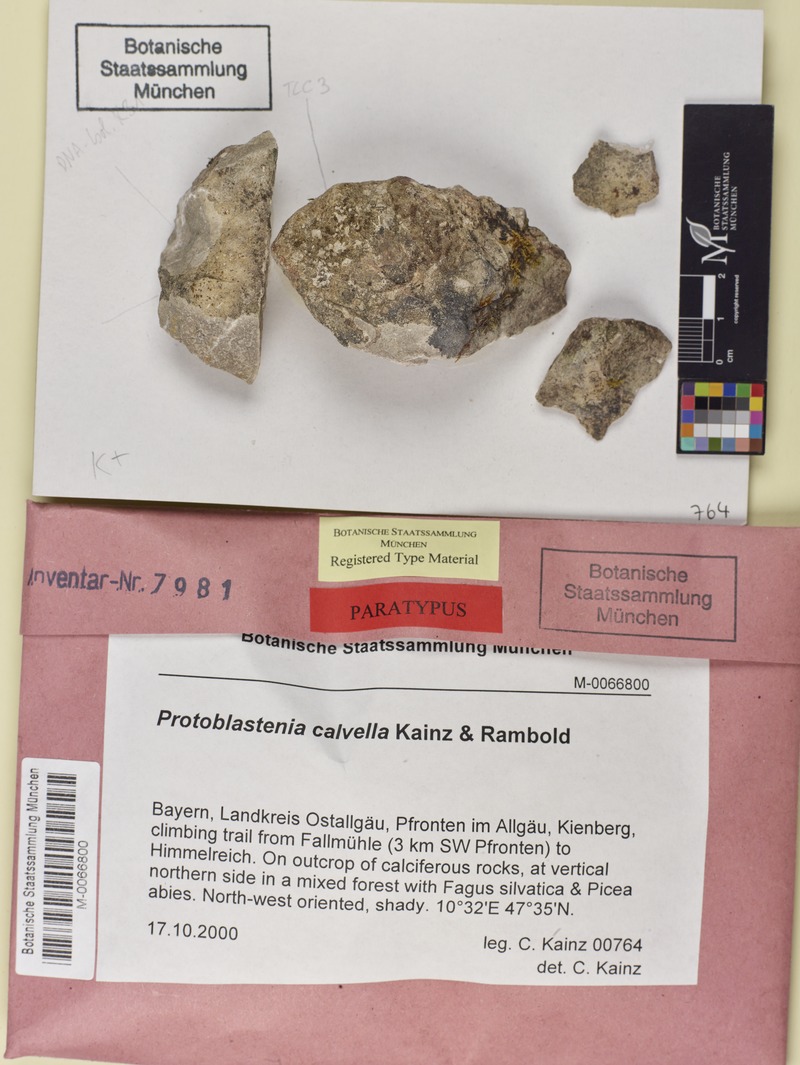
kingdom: Fungi
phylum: Ascomycota
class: Lecanoromycetes
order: Lecanorales
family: Psoraceae
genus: Protoblastenia
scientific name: Protoblastenia calvella
